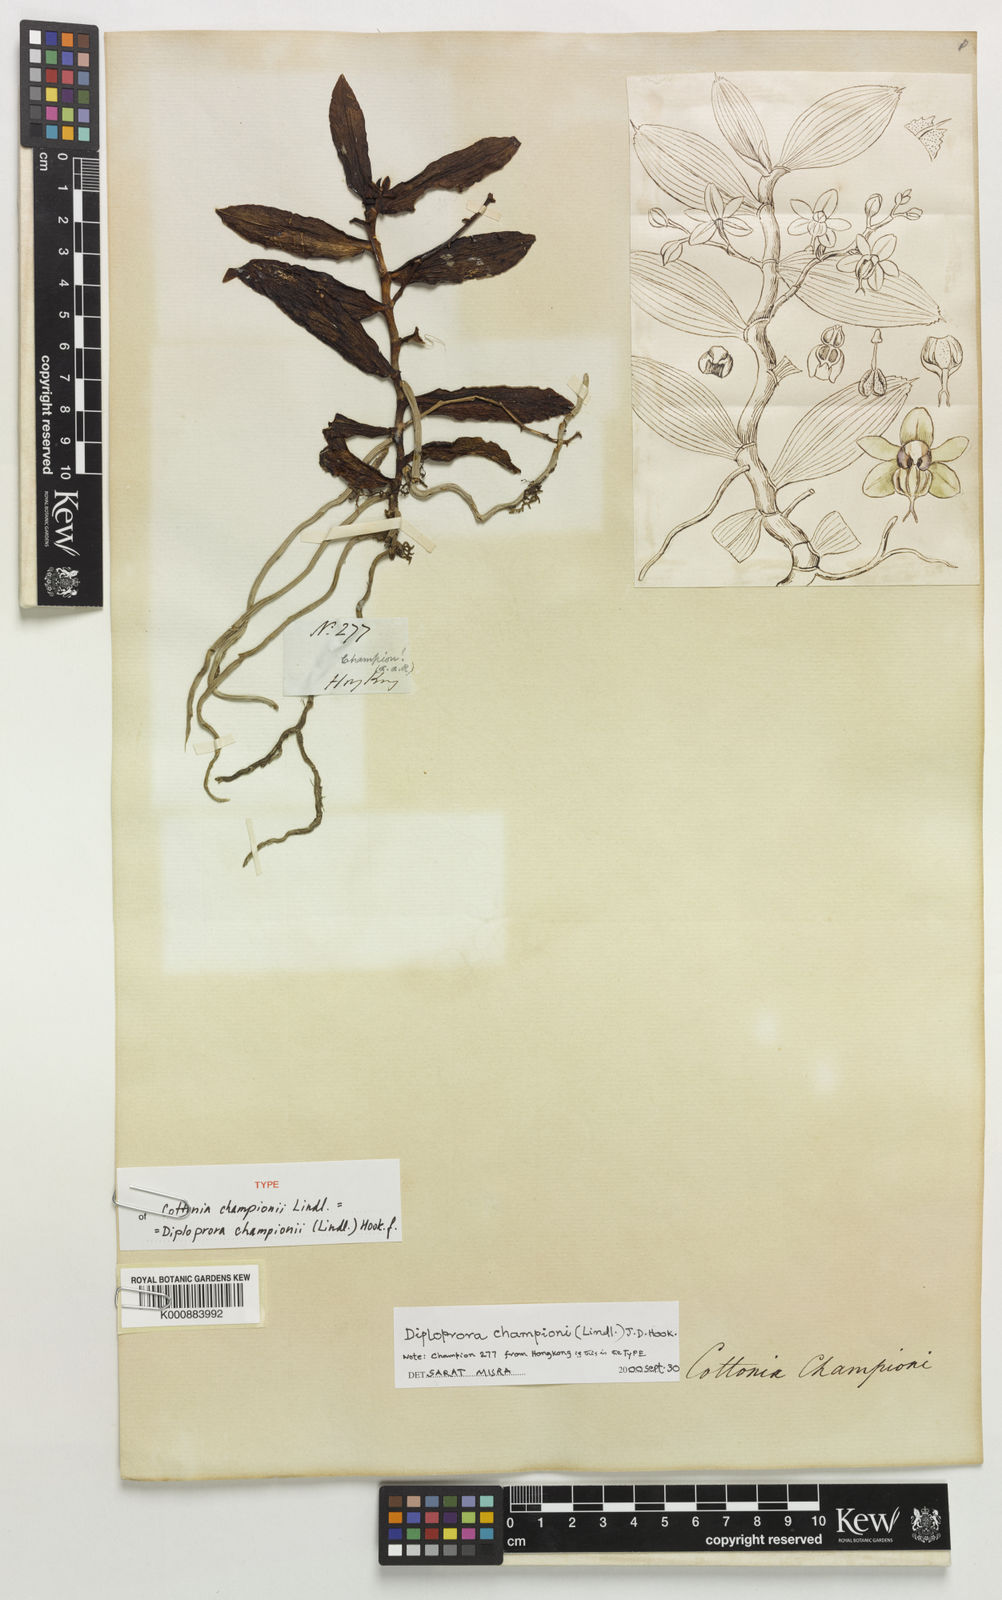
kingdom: Plantae
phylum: Tracheophyta
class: Liliopsida
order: Asparagales
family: Orchidaceae
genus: Diploprora
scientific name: Diploprora championii
